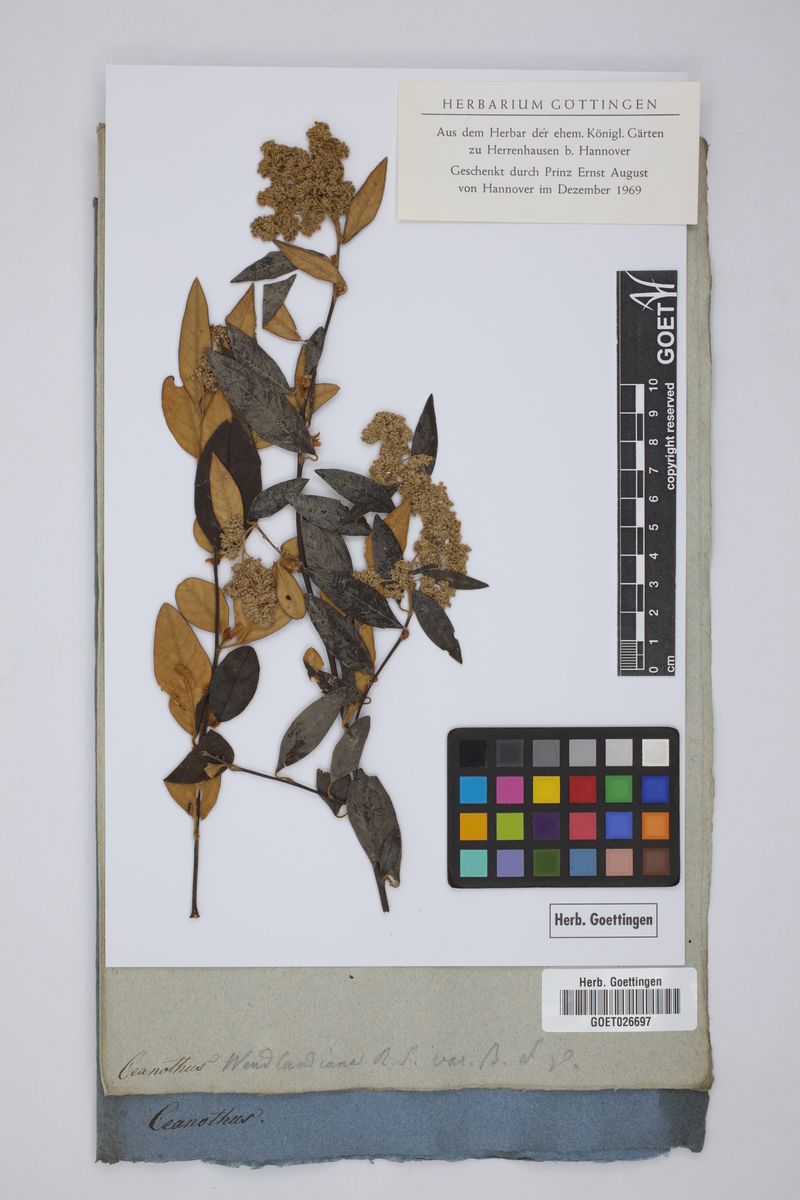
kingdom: Plantae
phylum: Tracheophyta
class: Magnoliopsida
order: Rosales
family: Rhamnaceae
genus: Pomaderris
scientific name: Pomaderris wendlandiana
